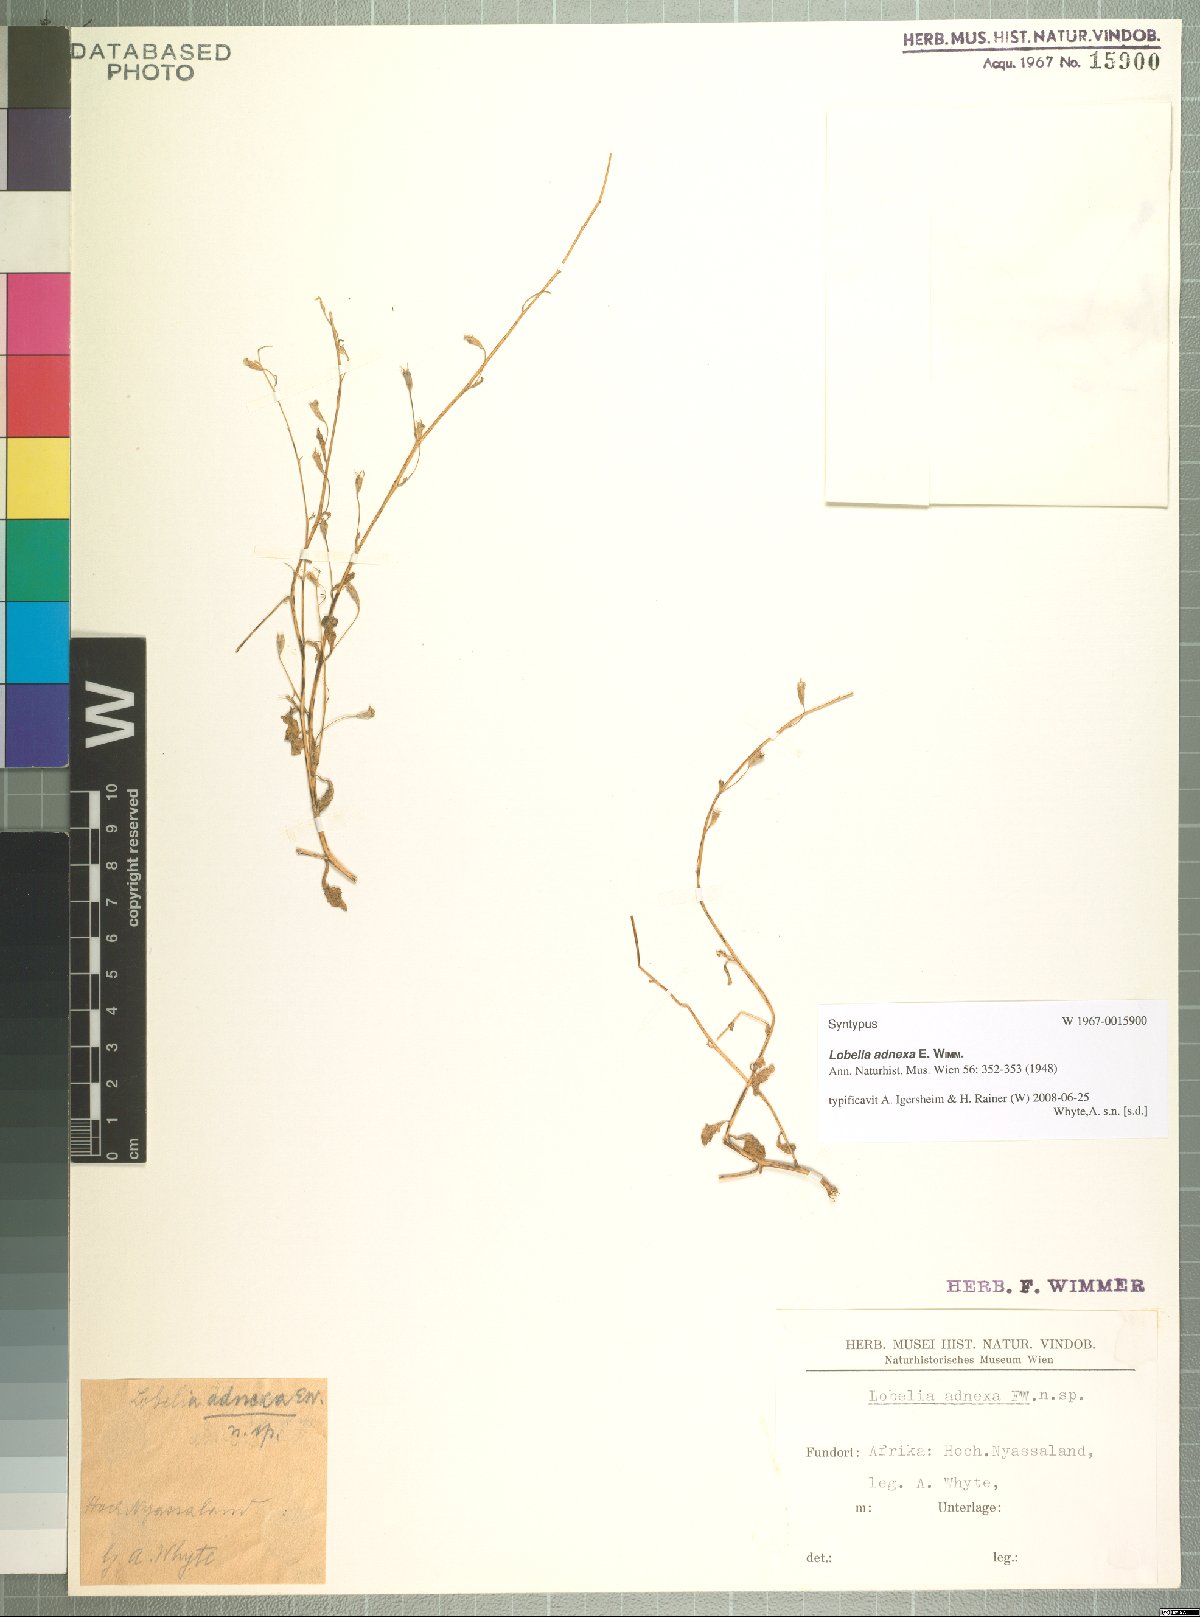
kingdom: Plantae
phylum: Tracheophyta
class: Magnoliopsida
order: Asterales
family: Campanulaceae
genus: Lobelia
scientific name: Lobelia adnexa
